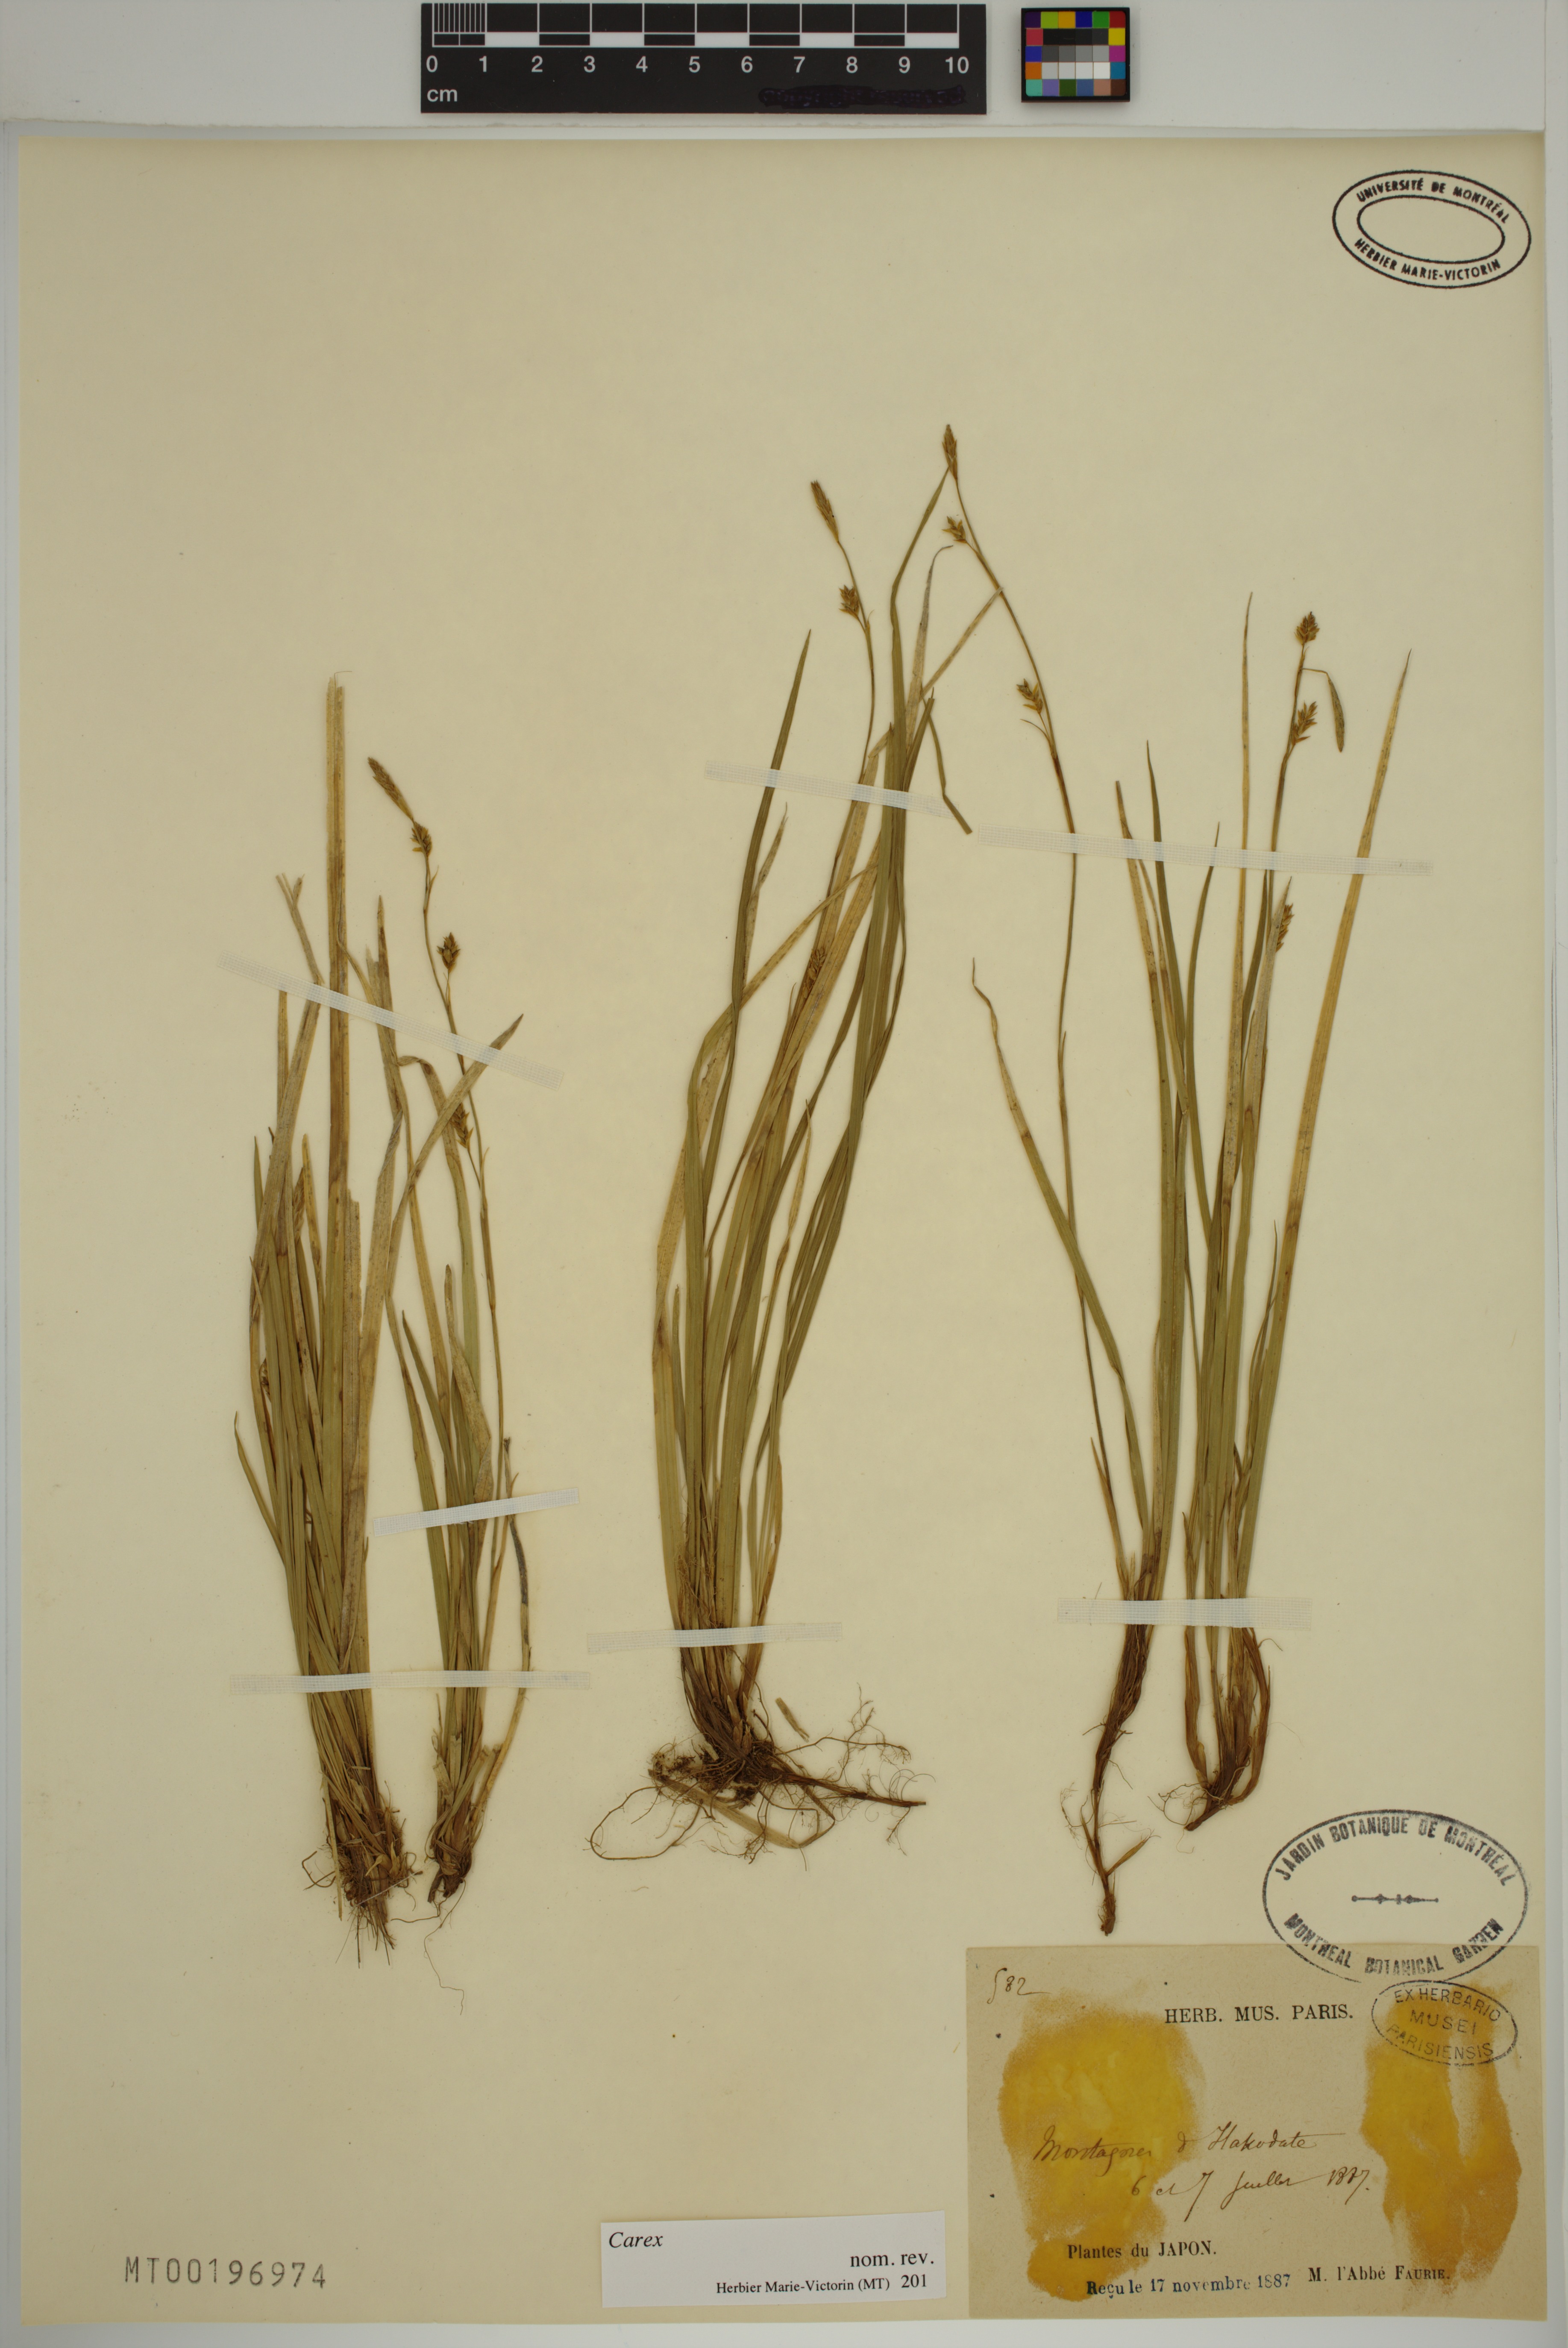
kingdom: Plantae
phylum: Tracheophyta
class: Liliopsida
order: Poales
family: Cyperaceae
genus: Carex
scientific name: Carex
